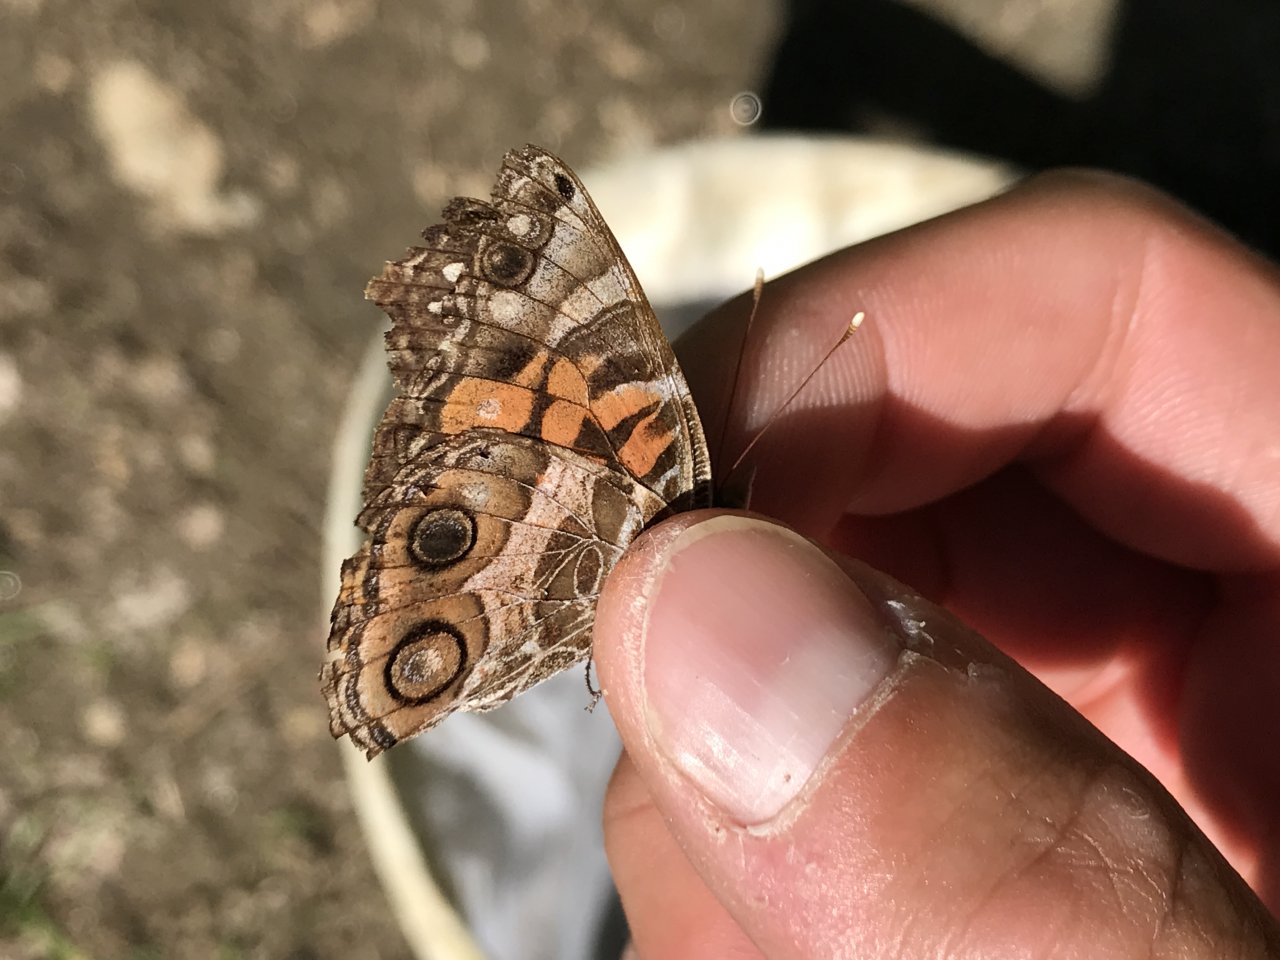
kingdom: Animalia
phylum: Arthropoda
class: Insecta
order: Lepidoptera
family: Nymphalidae
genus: Vanessa
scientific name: Vanessa virginiensis
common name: American Lady
